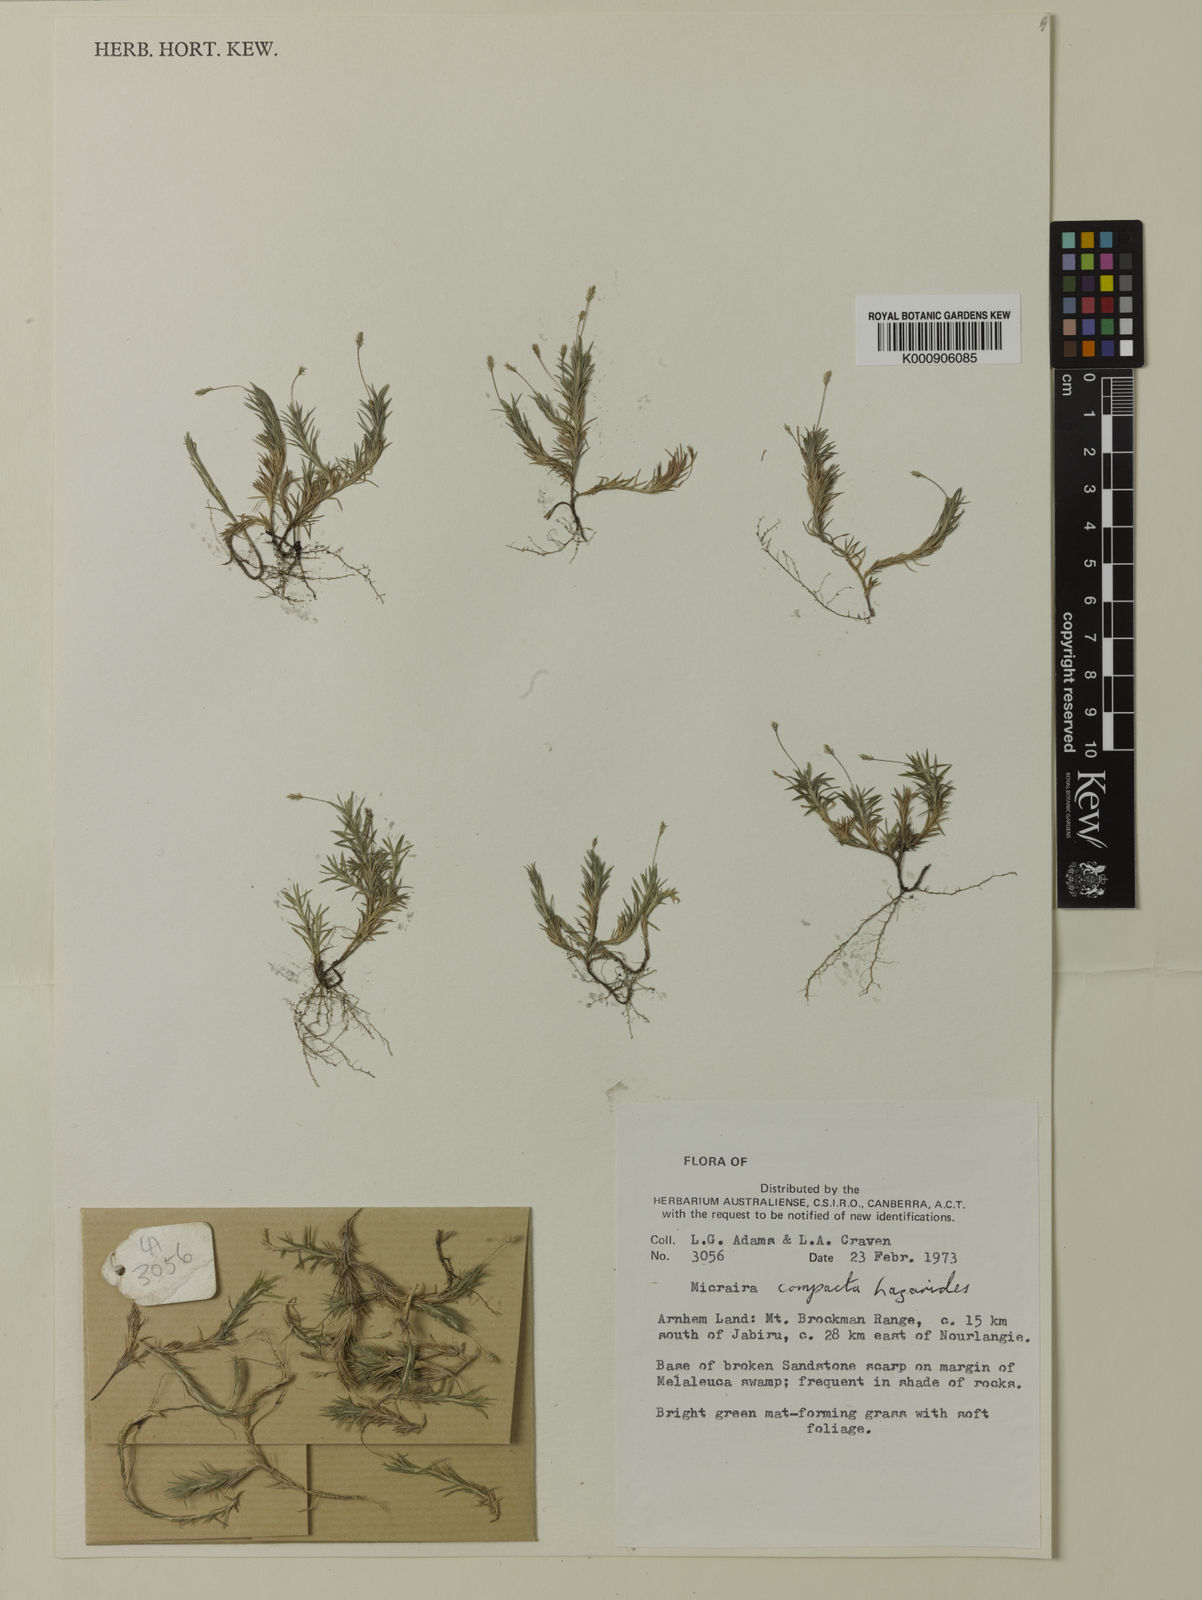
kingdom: Plantae
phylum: Tracheophyta
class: Liliopsida
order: Poales
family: Poaceae
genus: Micraira
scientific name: Micraira compacta
